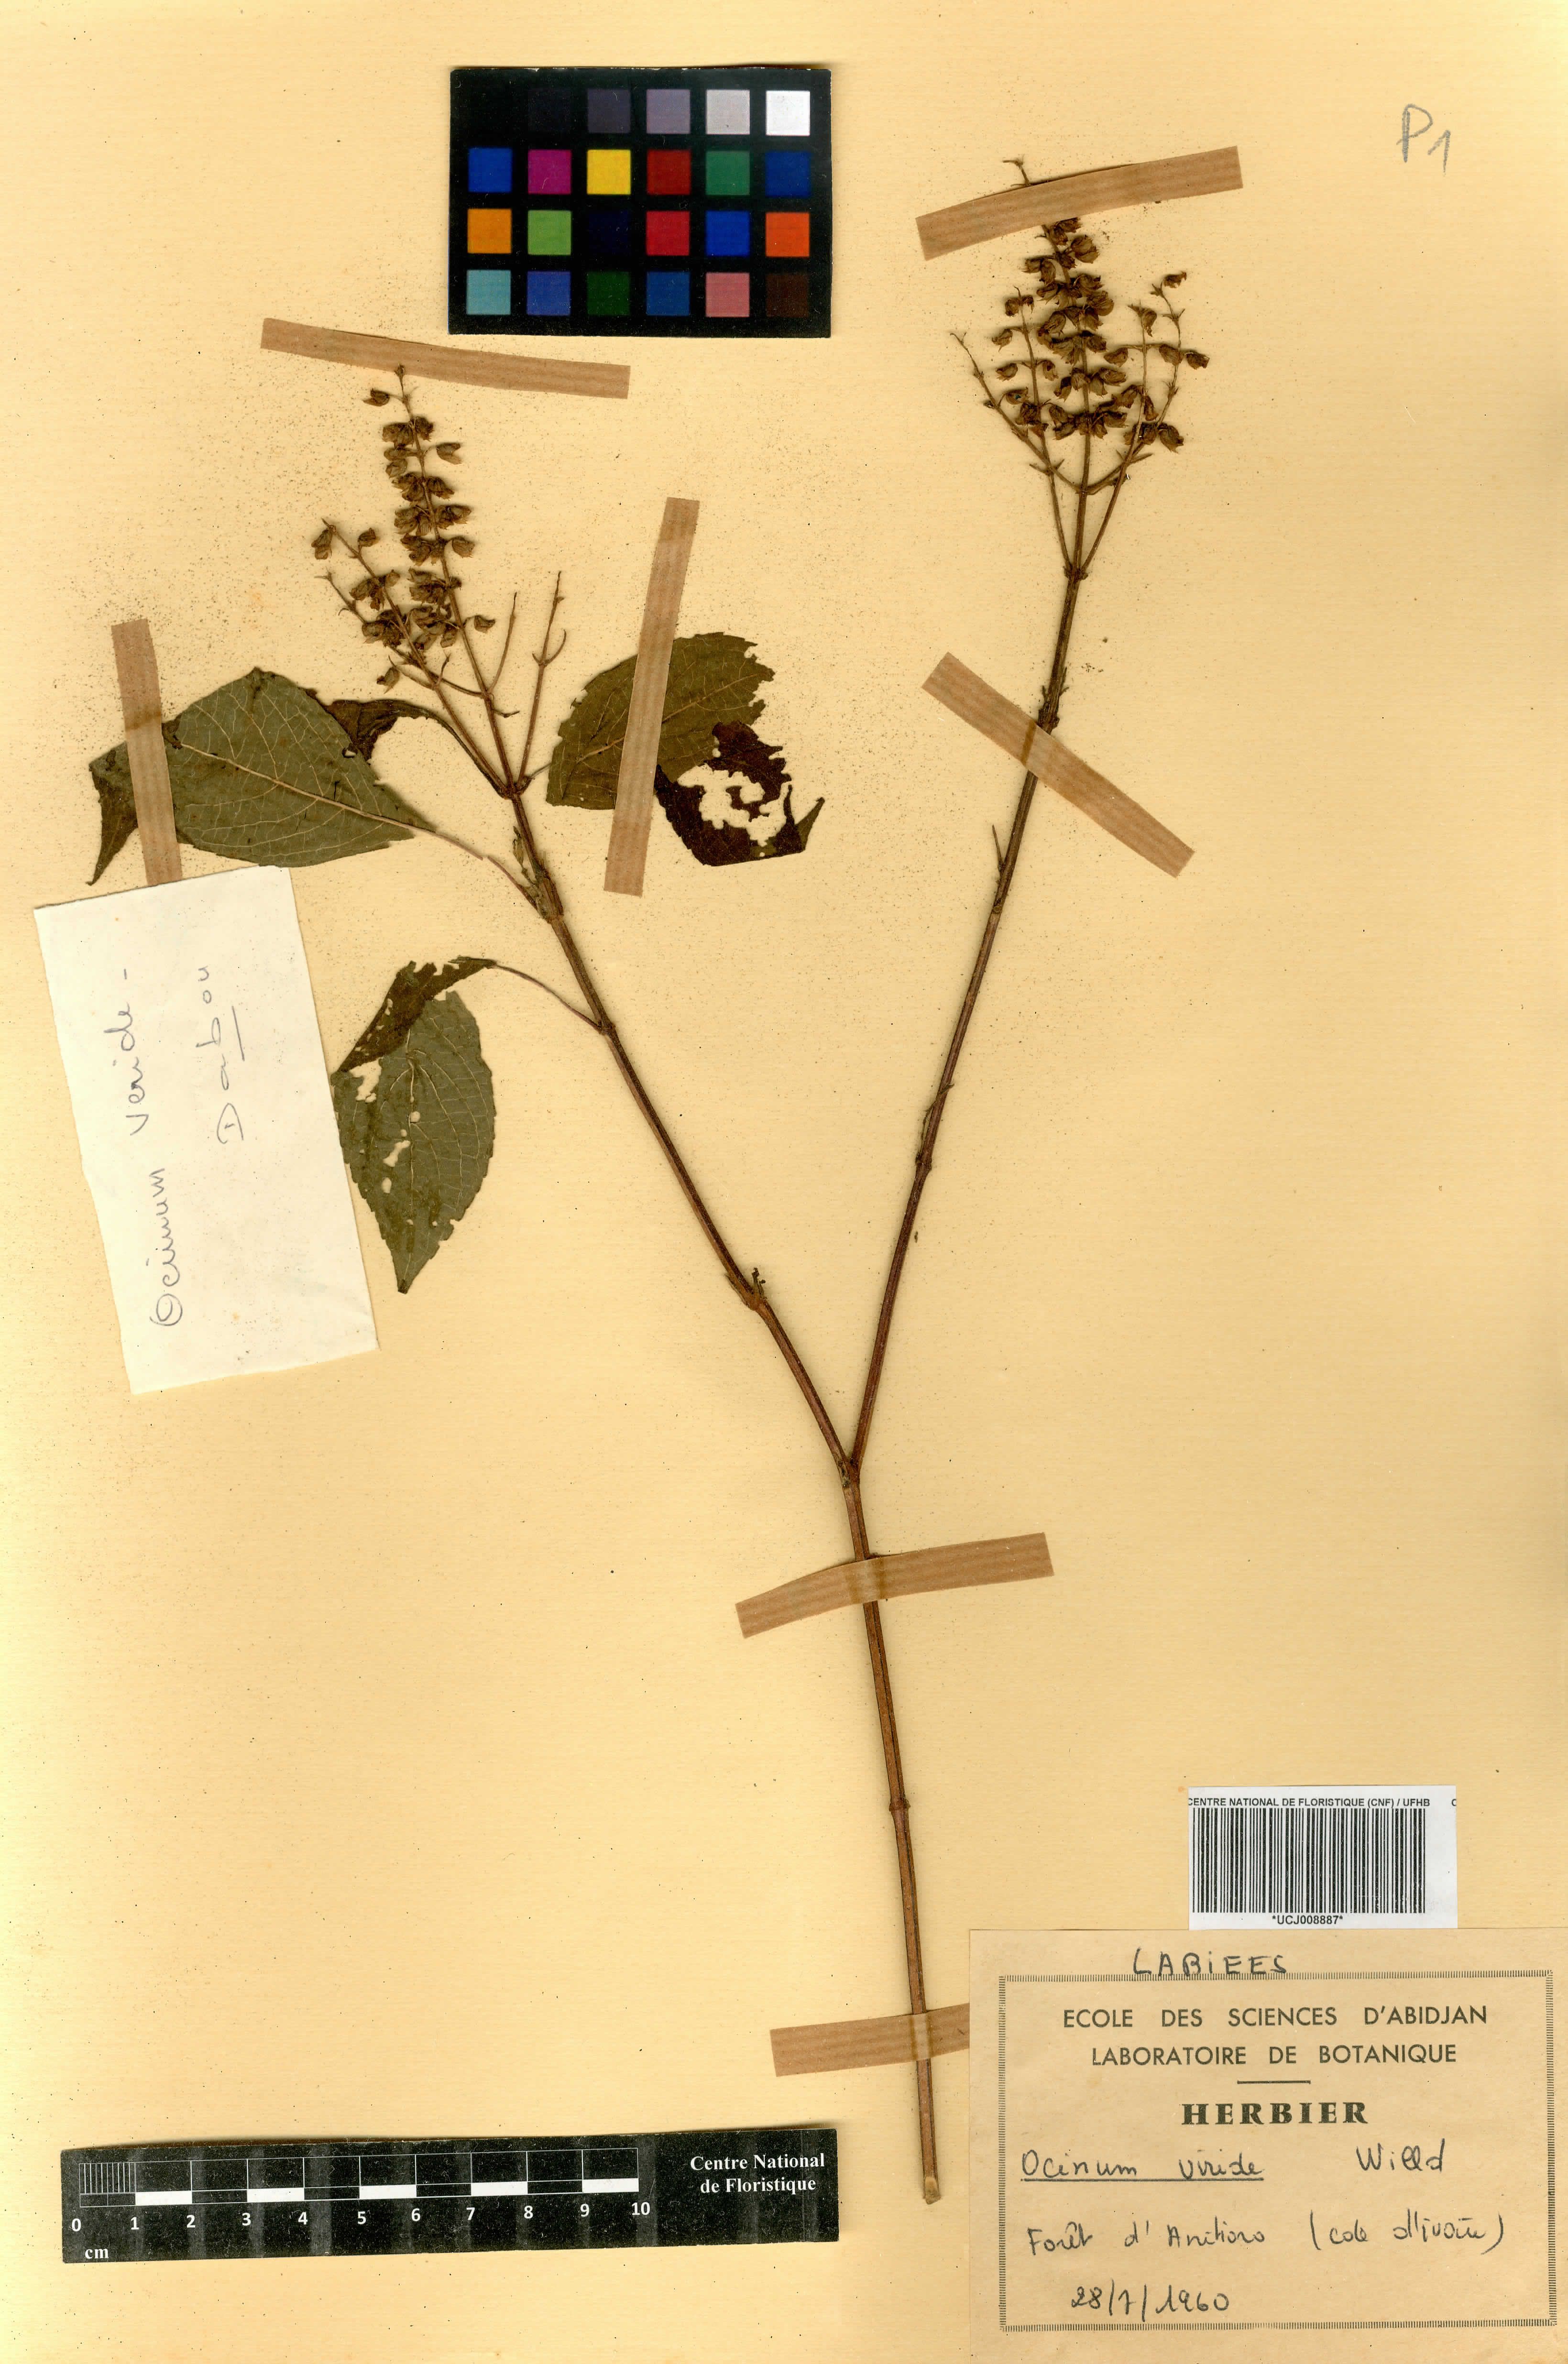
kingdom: Plantae
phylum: Tracheophyta
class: Magnoliopsida
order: Lamiales
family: Lamiaceae
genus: Ocimum
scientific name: Ocimum gratissimum
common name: African basil
